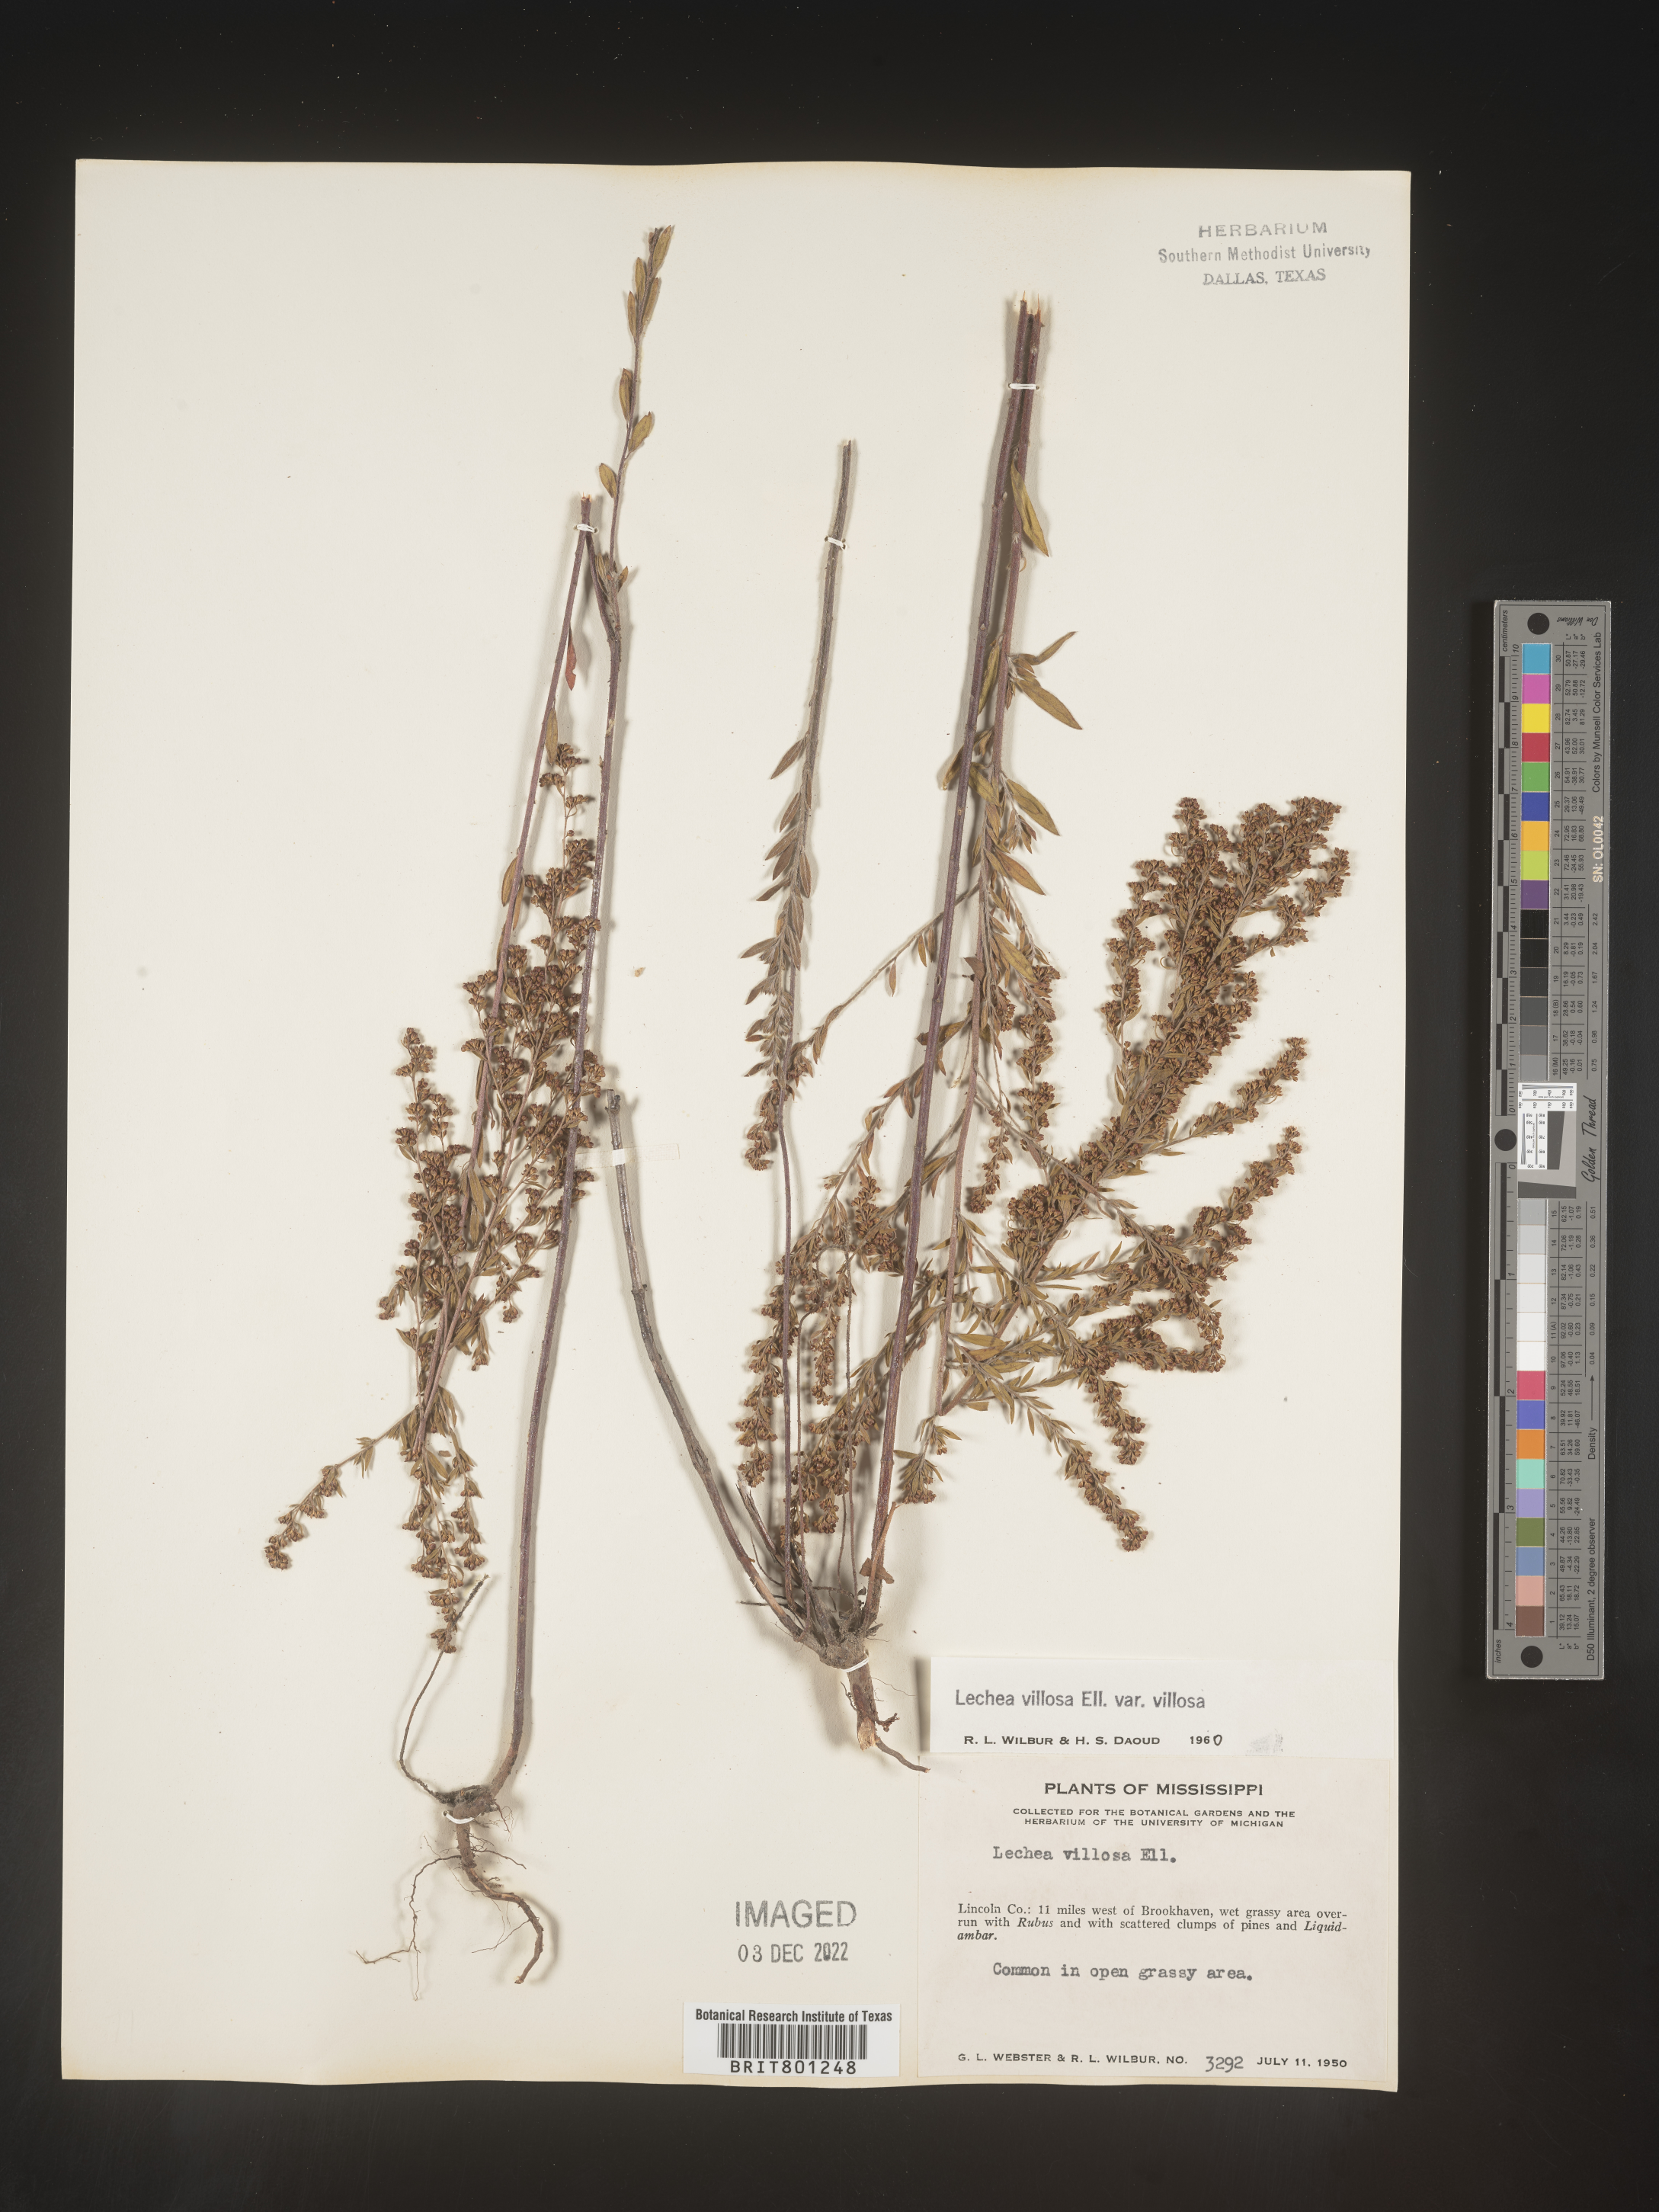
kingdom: Plantae
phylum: Tracheophyta
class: Magnoliopsida
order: Malvales
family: Cistaceae
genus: Lechea
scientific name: Lechea mucronata
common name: Hairy pinweed
